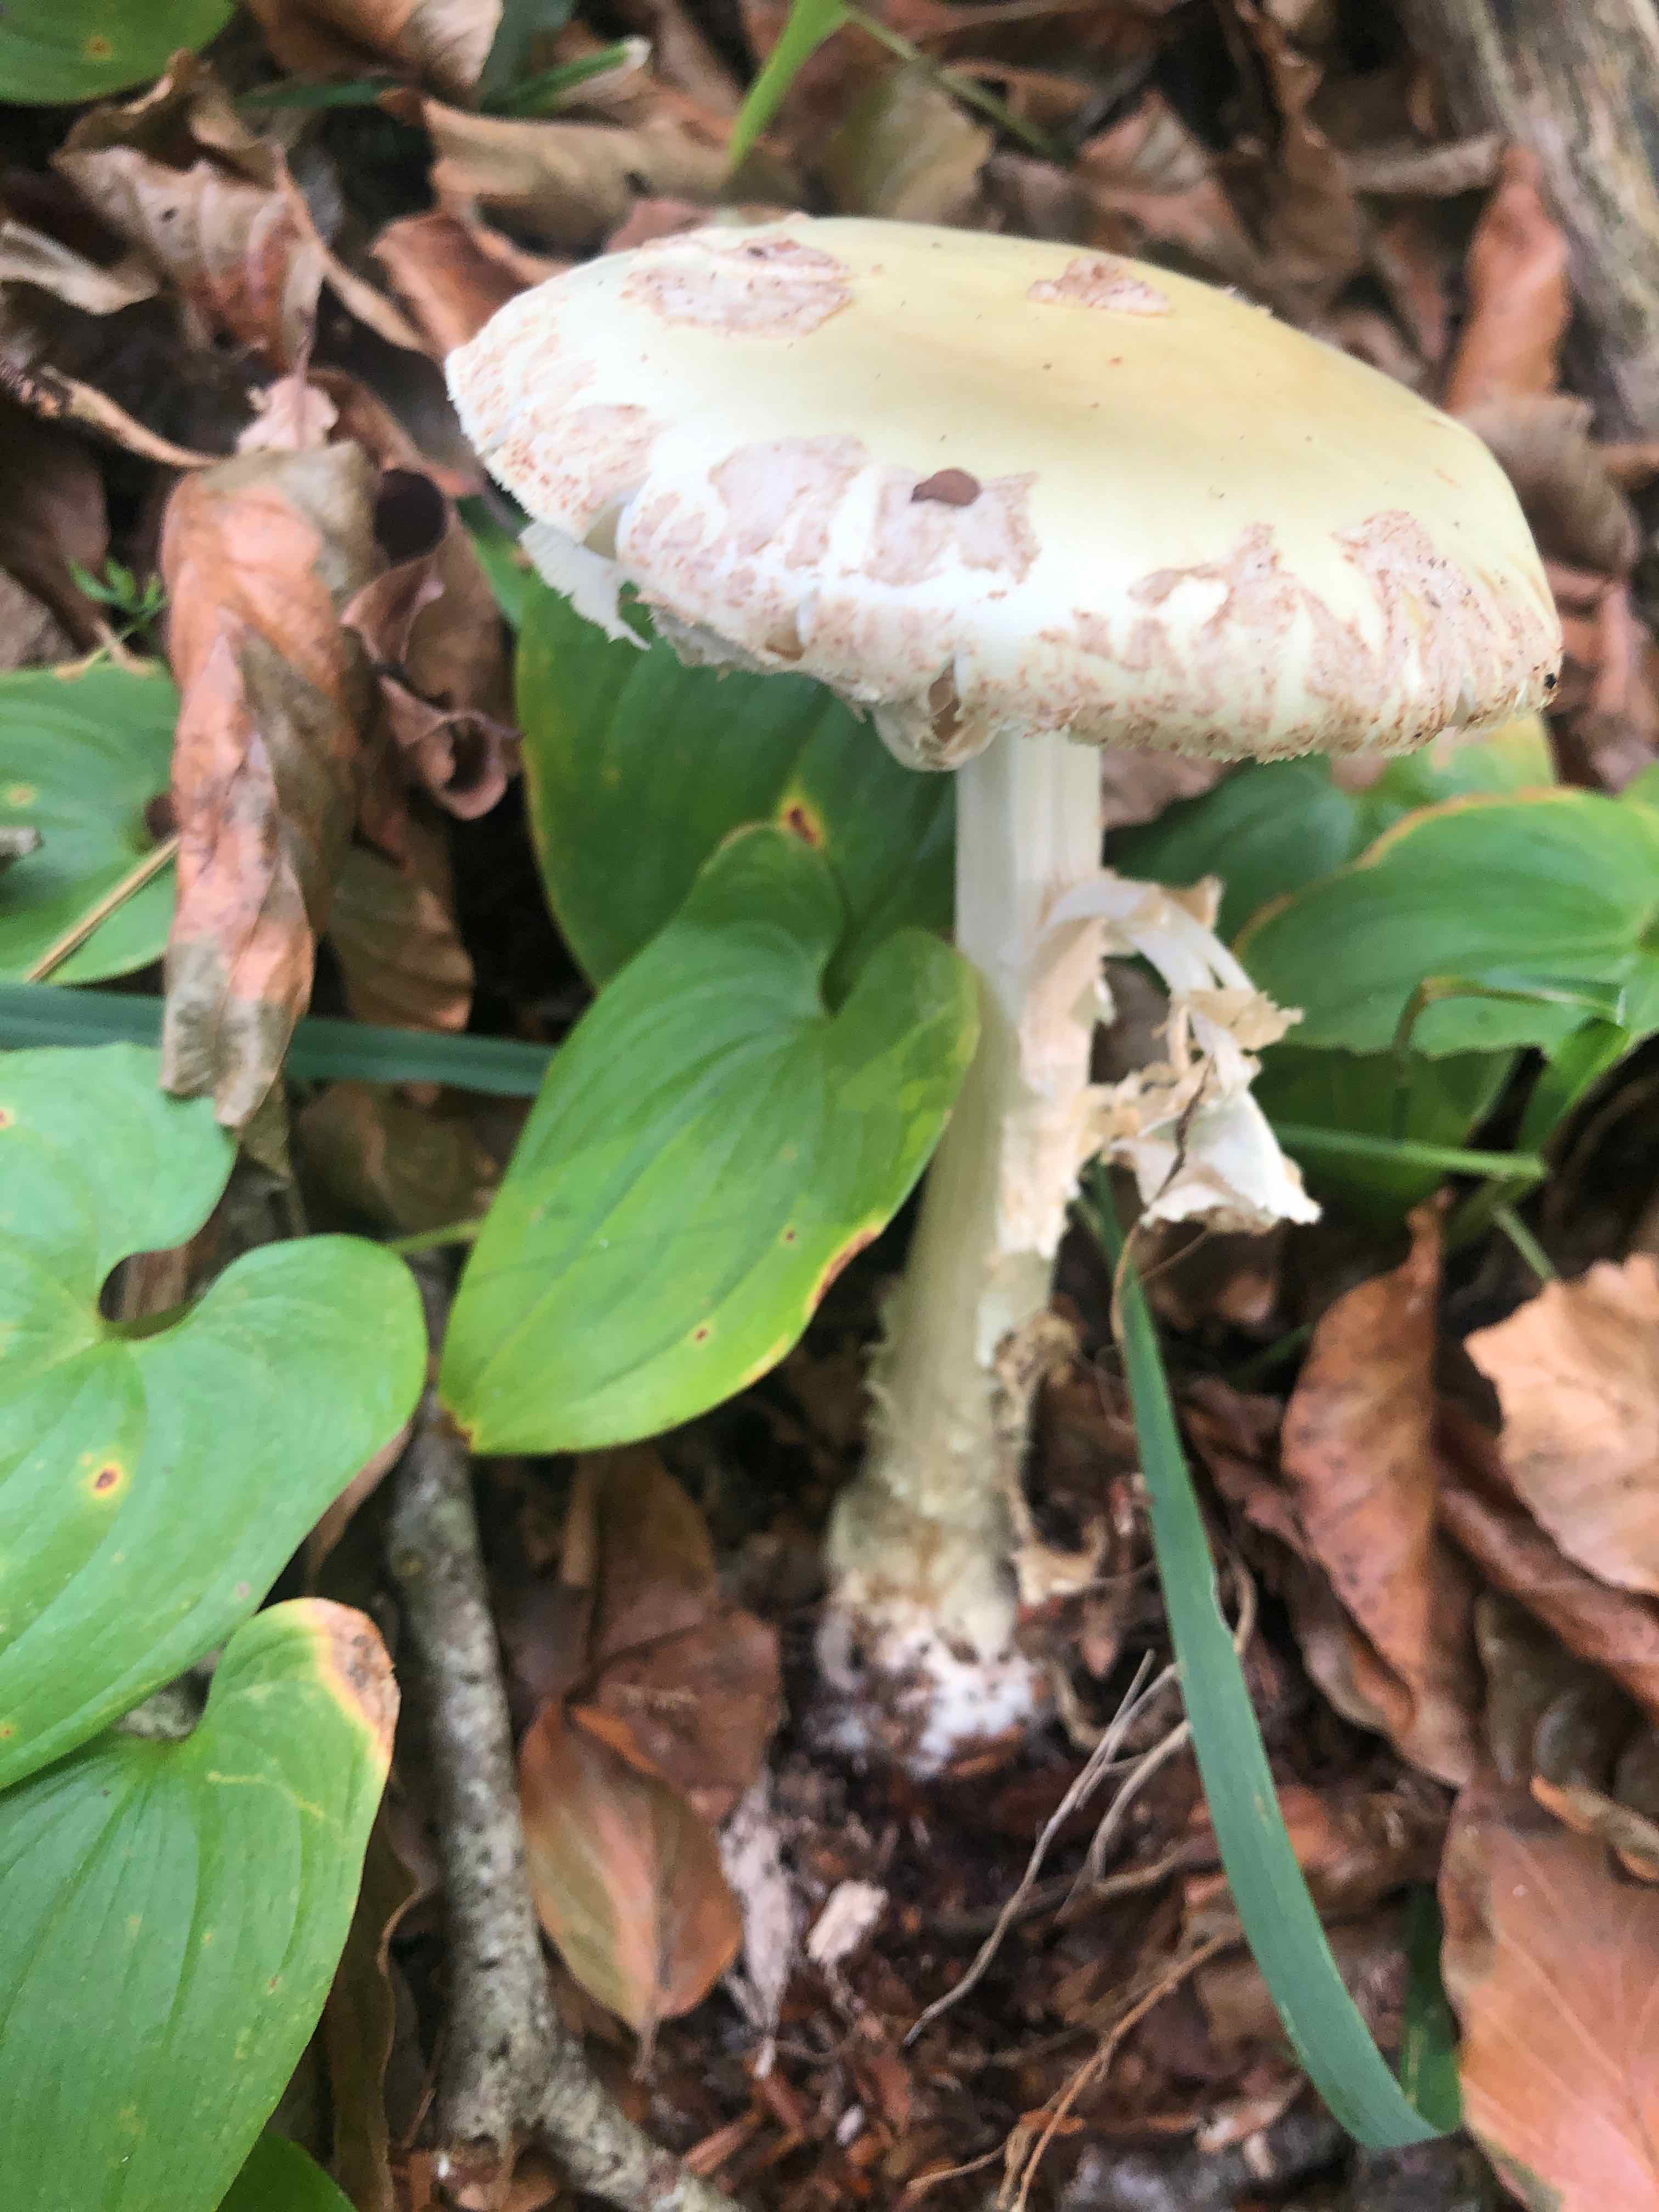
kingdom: Fungi
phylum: Basidiomycota
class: Agaricomycetes
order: Agaricales
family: Amanitaceae
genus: Amanita
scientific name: Amanita citrina
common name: kugleknoldet fluesvamp
